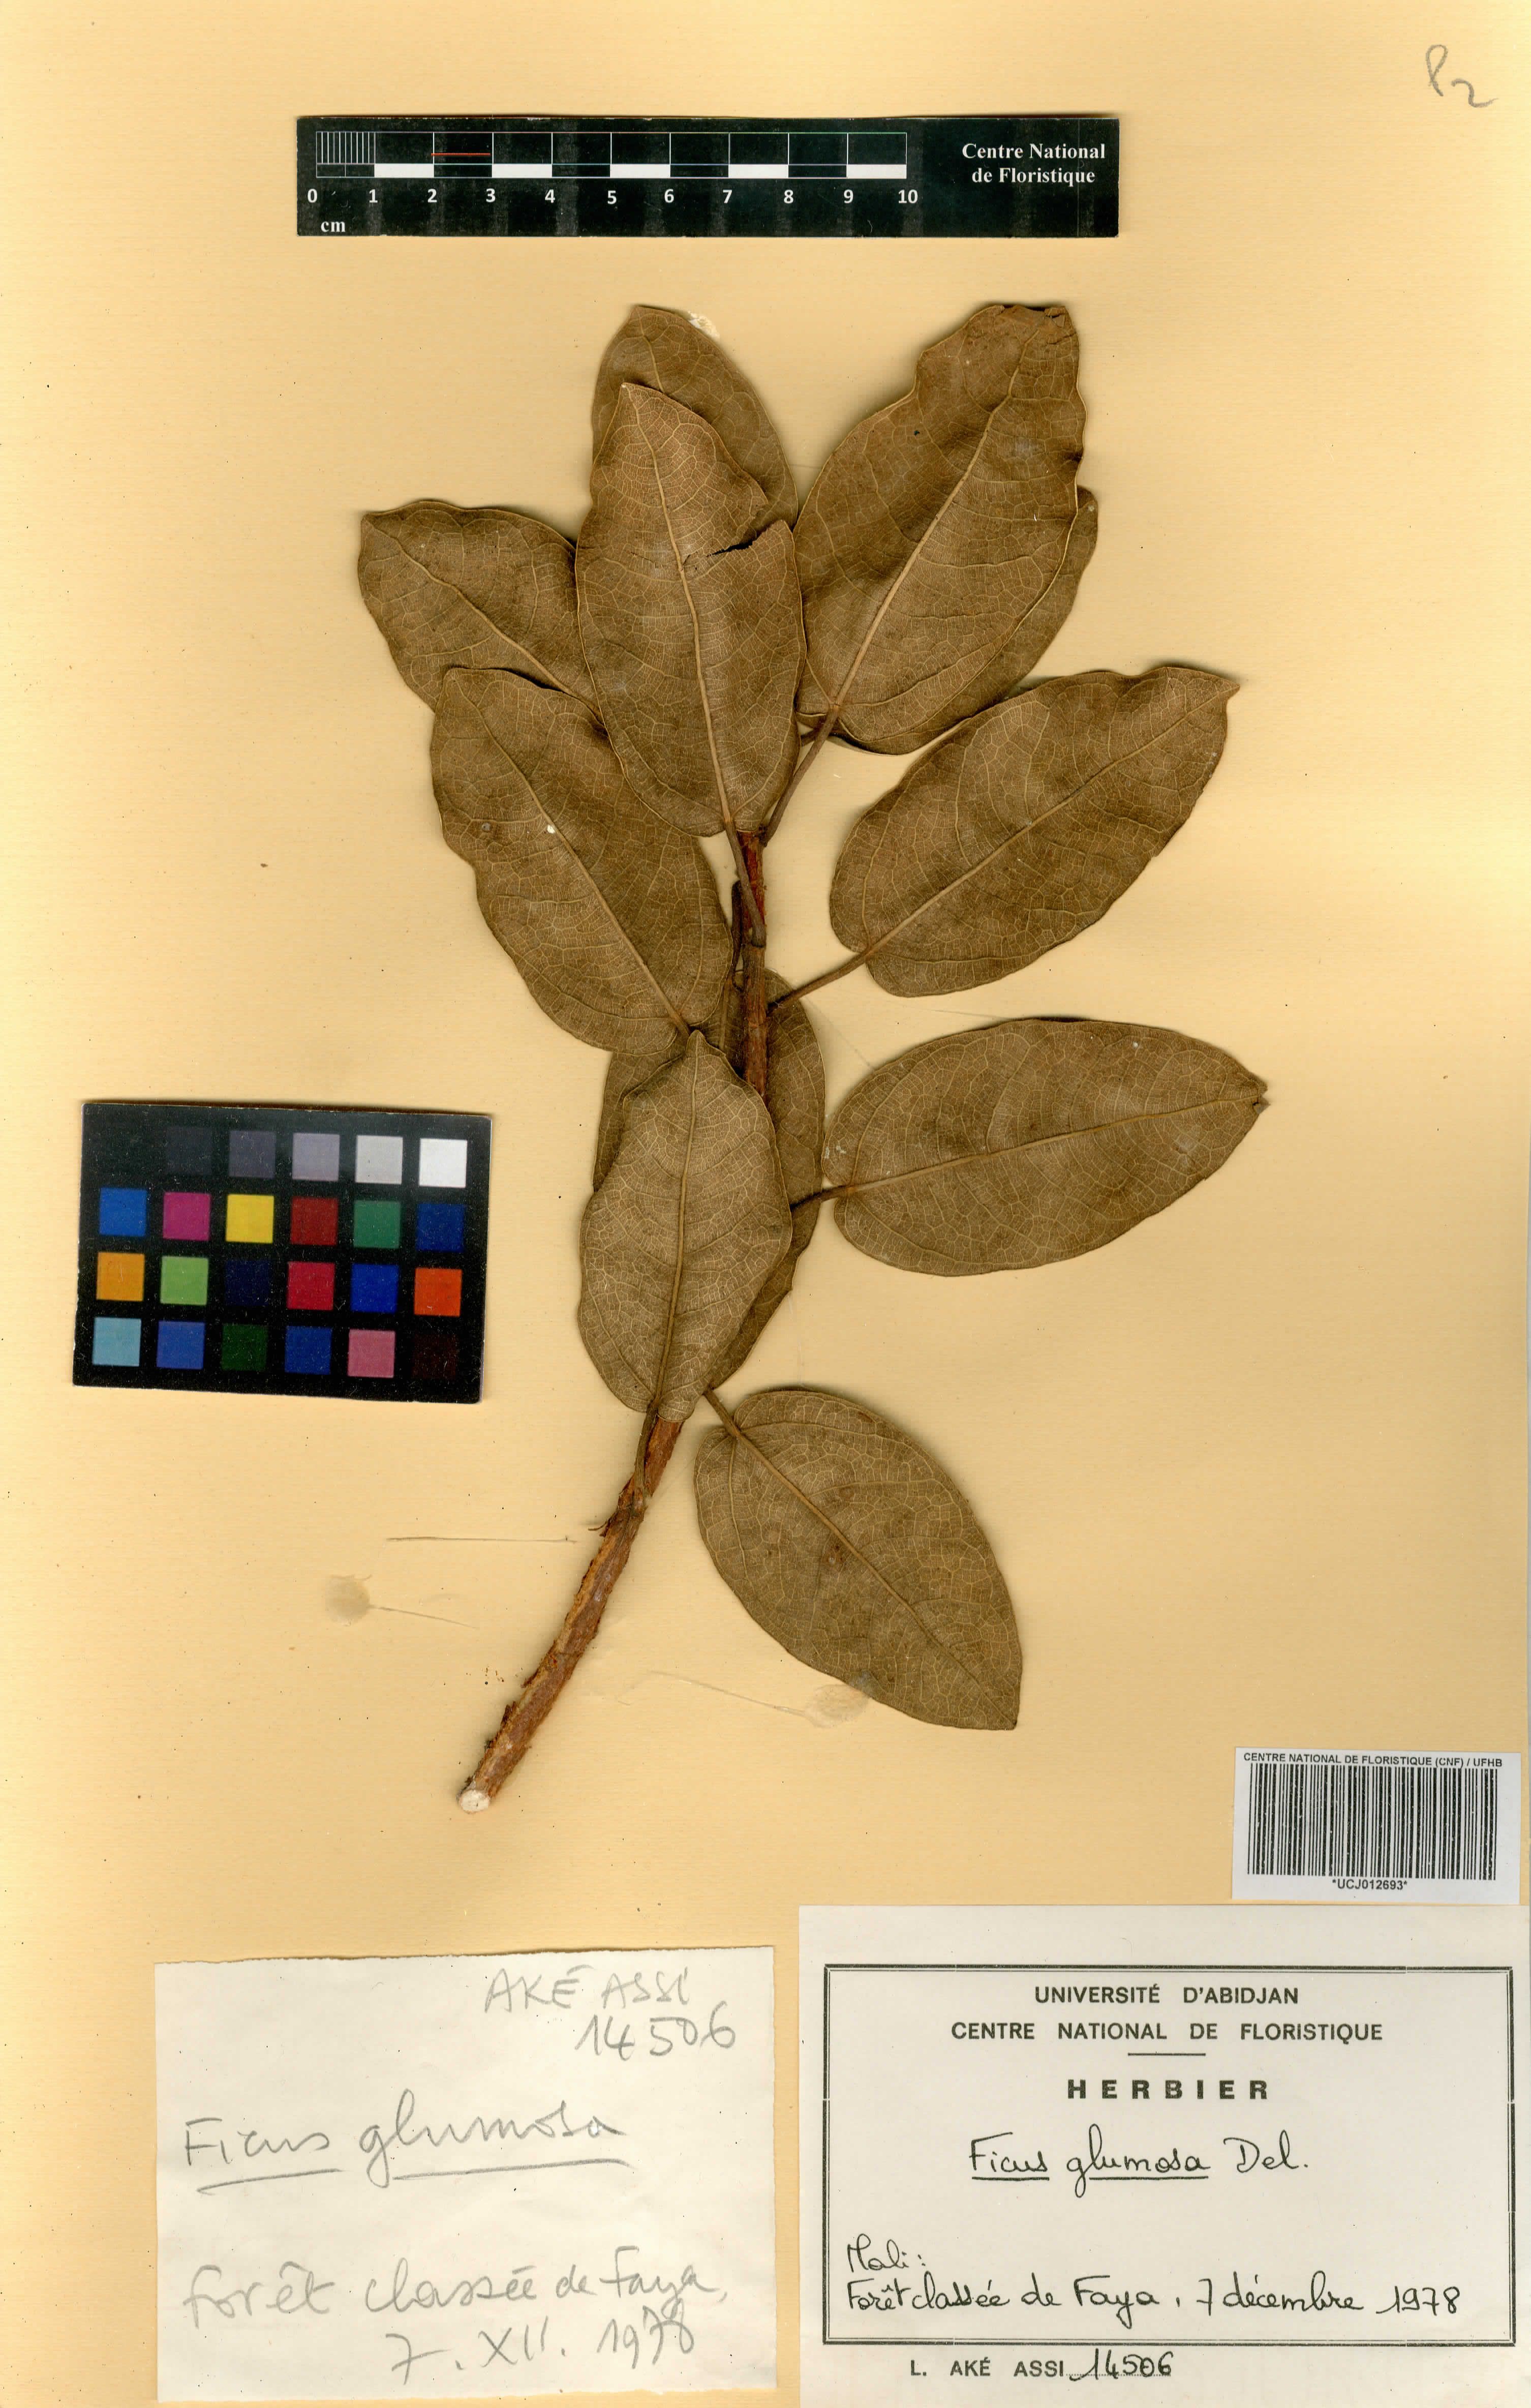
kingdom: Plantae
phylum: Tracheophyta
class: Magnoliopsida
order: Rosales
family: Moraceae
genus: Ficus
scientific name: Ficus glumosa
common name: Hairy rock fig
